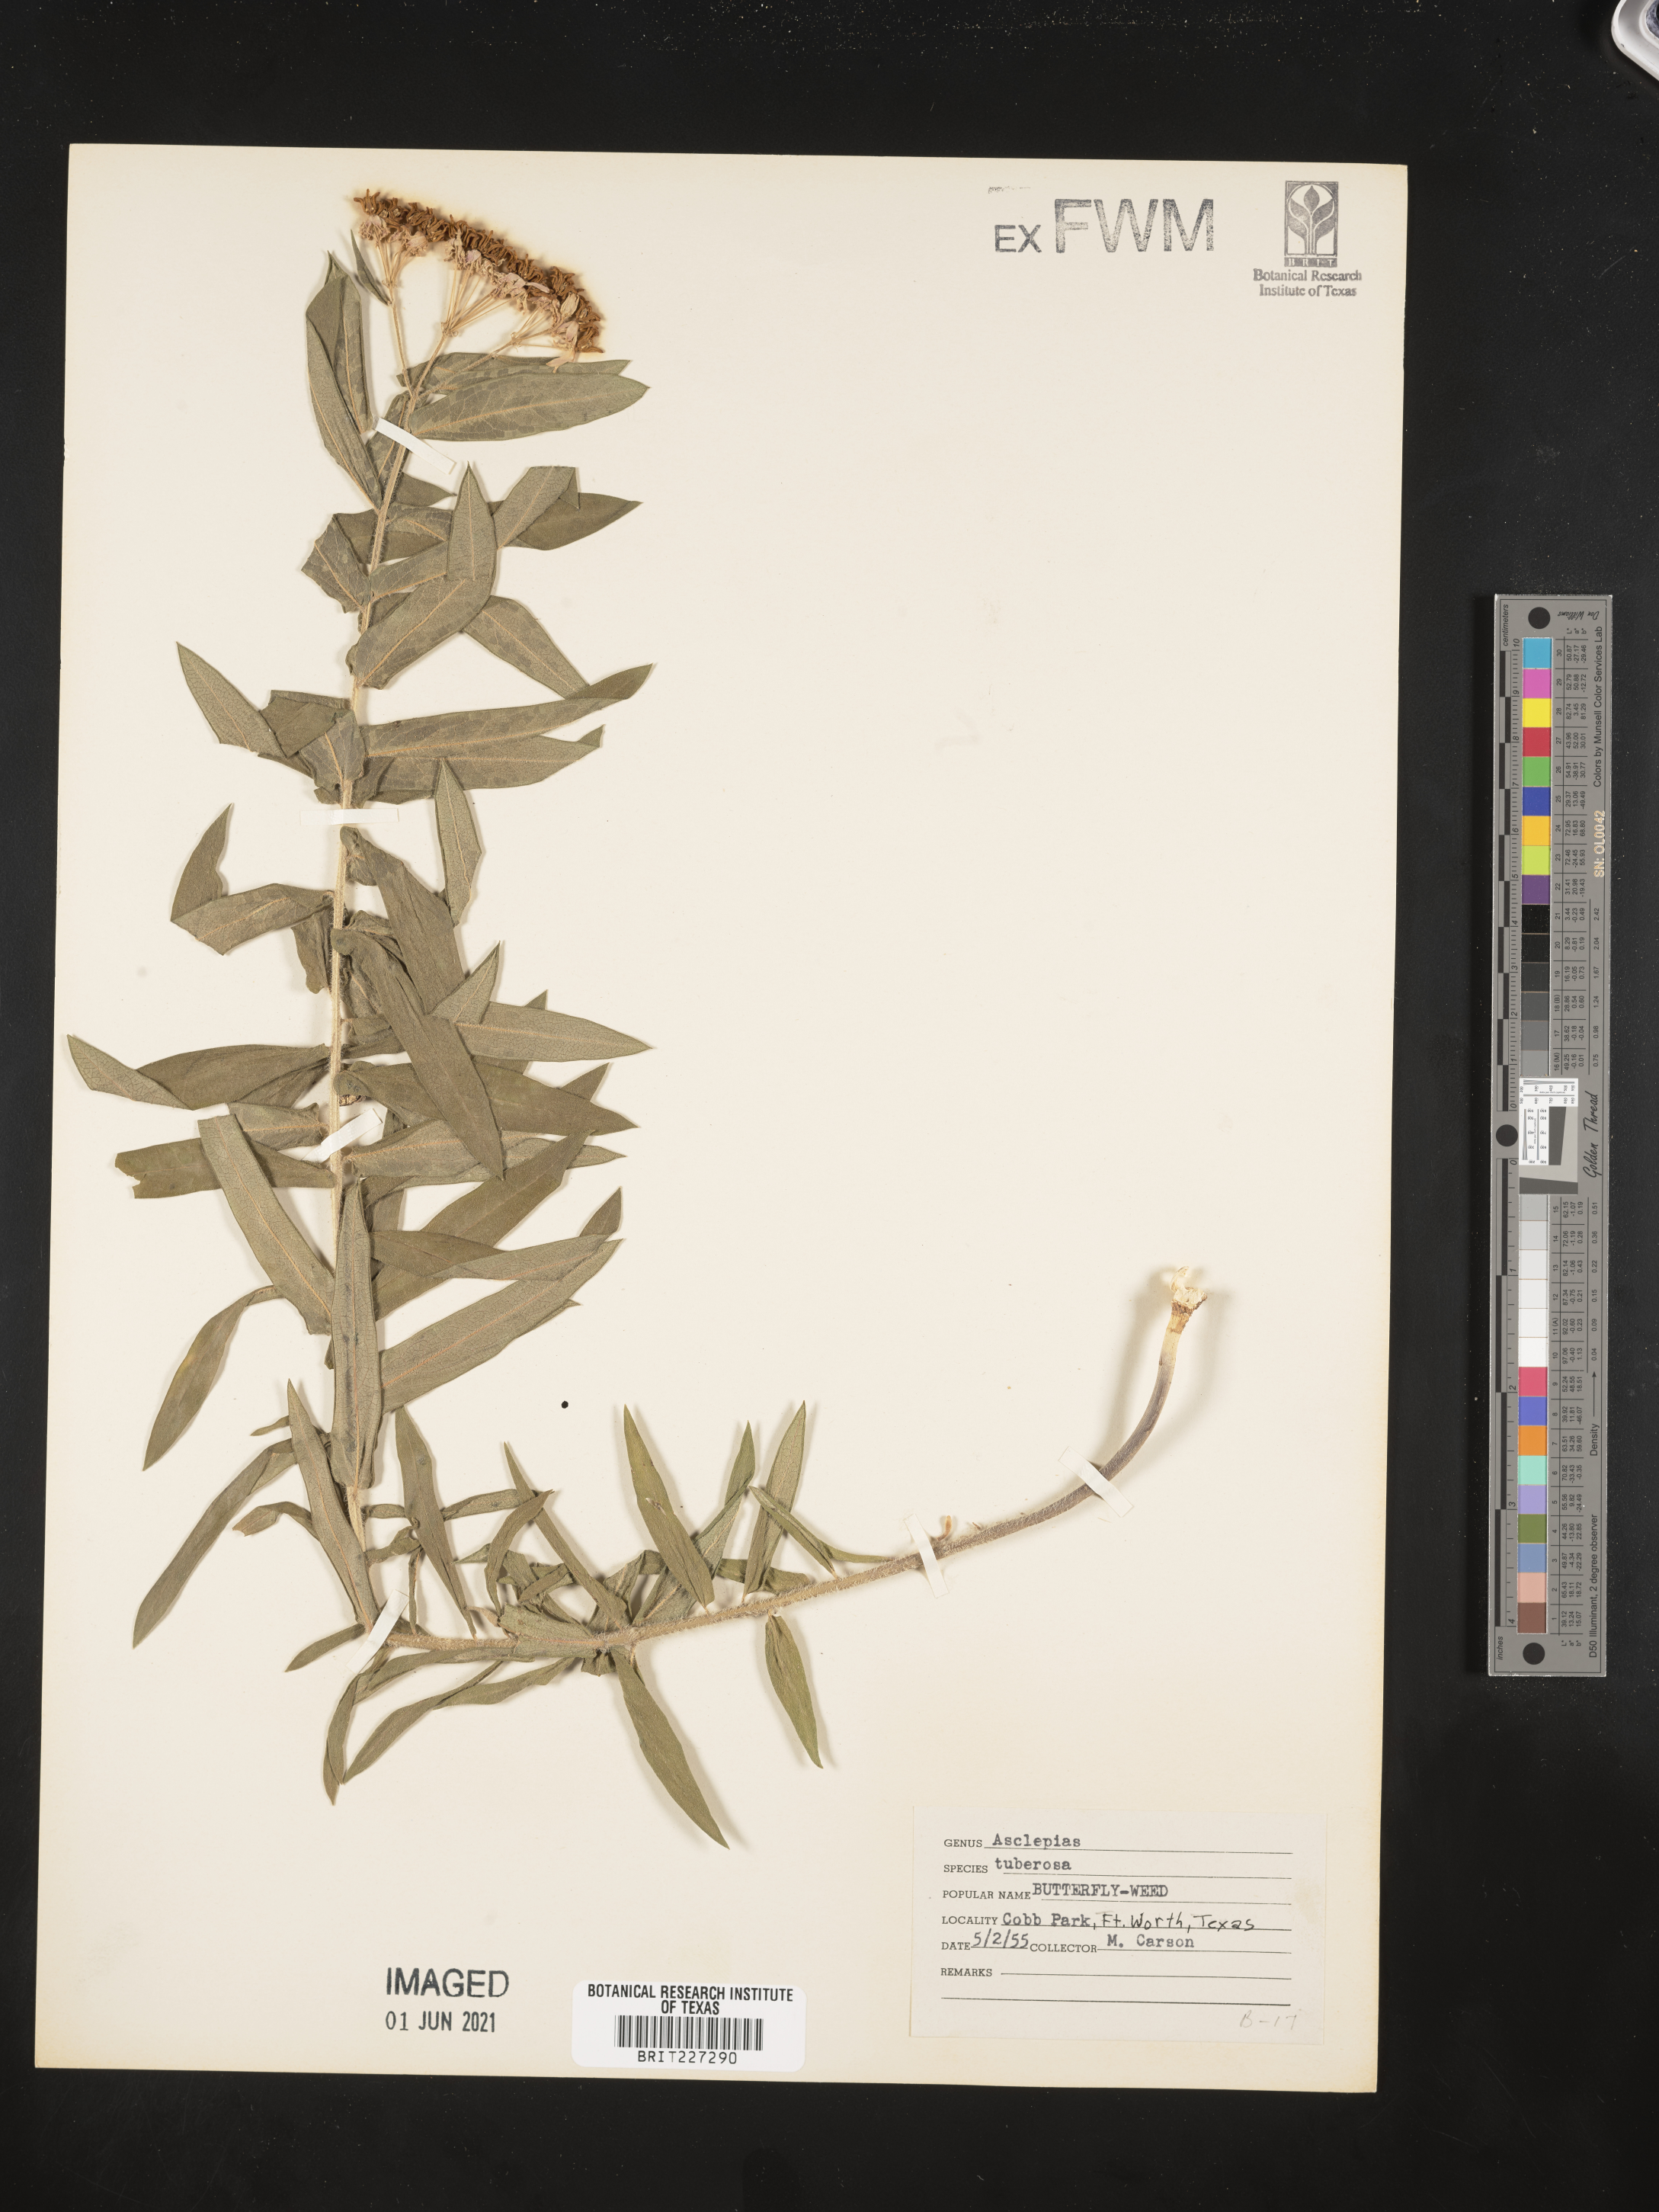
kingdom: Plantae
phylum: Tracheophyta
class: Magnoliopsida
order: Gentianales
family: Apocynaceae
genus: Asclepias
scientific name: Asclepias tuberosa
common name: Butterfly milkweed
